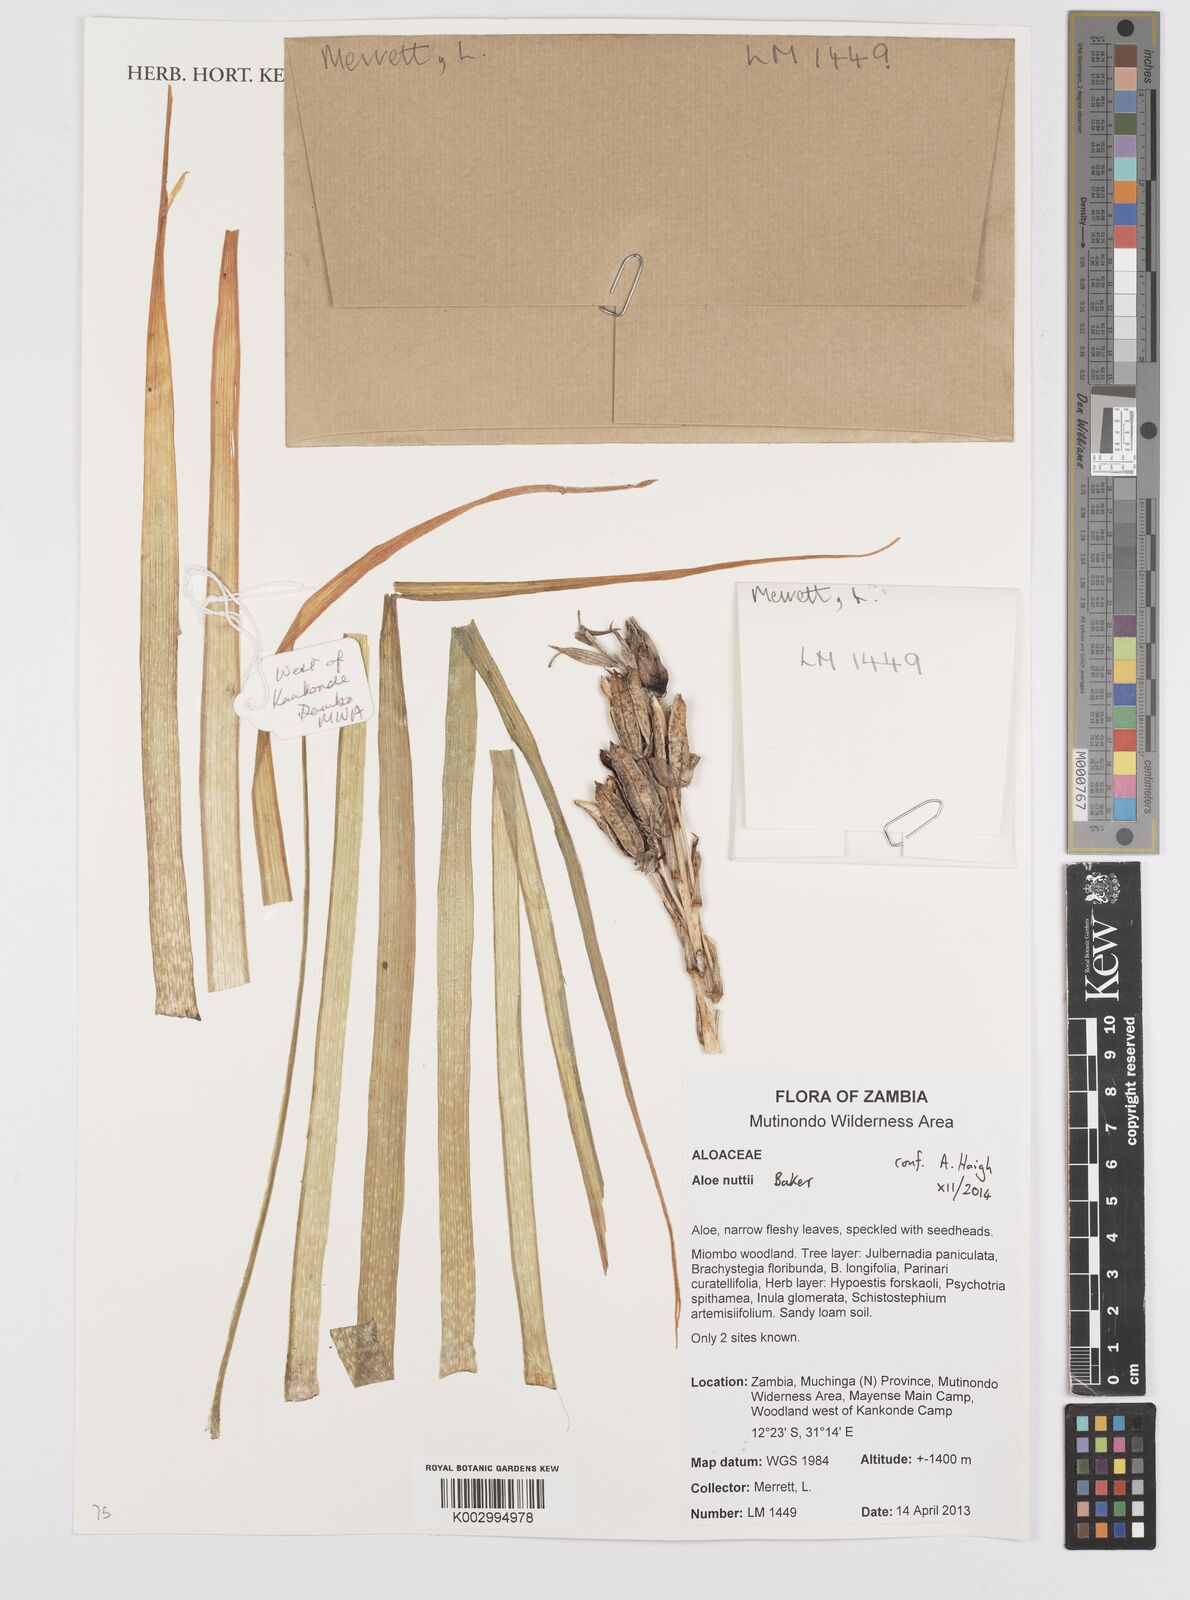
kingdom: Plantae
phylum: Tracheophyta
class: Liliopsida
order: Asparagales
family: Asphodelaceae
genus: Aloe
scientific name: Aloe nuttii
